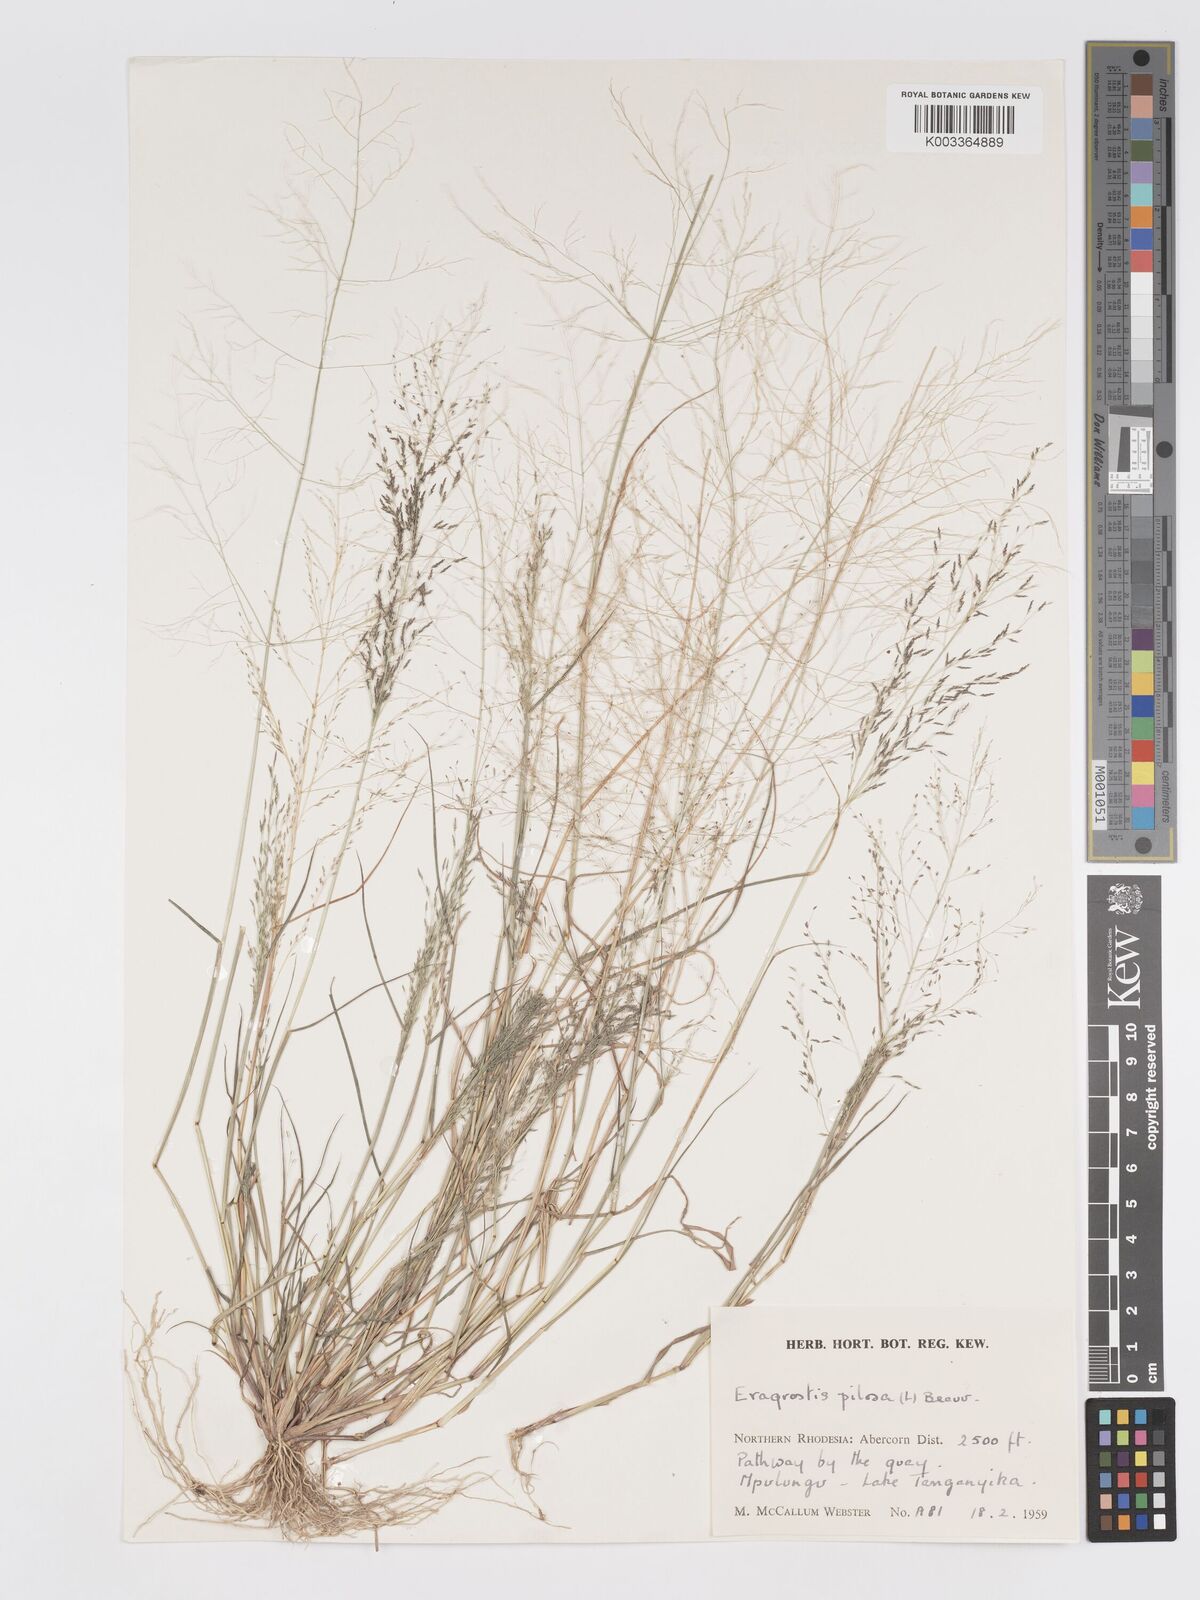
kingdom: Plantae
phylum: Tracheophyta
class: Liliopsida
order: Poales
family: Poaceae
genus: Eragrostis
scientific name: Eragrostis pilosa
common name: Indian lovegrass
